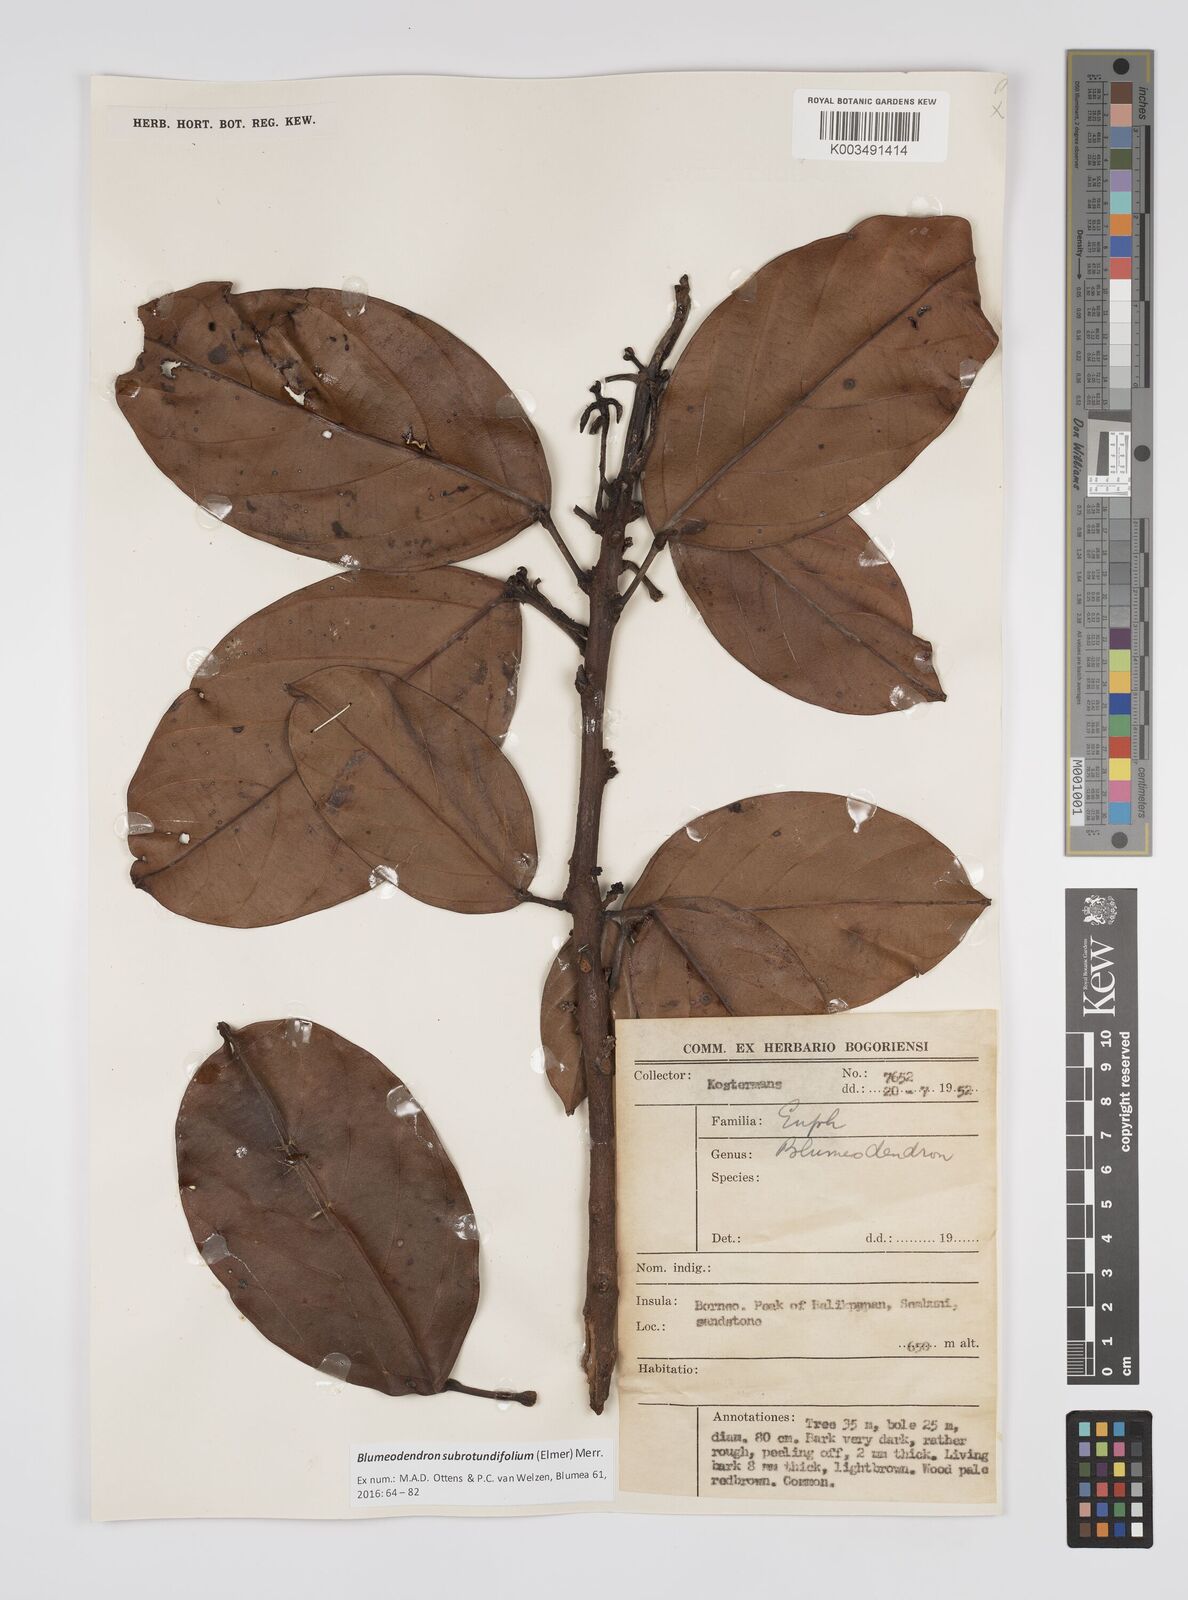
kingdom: Plantae
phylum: Tracheophyta
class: Magnoliopsida
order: Malpighiales
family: Euphorbiaceae
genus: Blumeodendron
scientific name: Blumeodendron subrotundifolium
